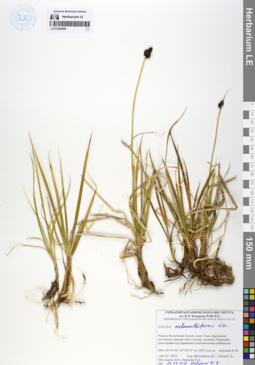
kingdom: Plantae
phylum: Tracheophyta
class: Liliopsida
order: Poales
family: Cyperaceae
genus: Carex
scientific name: Carex melananthiformis
